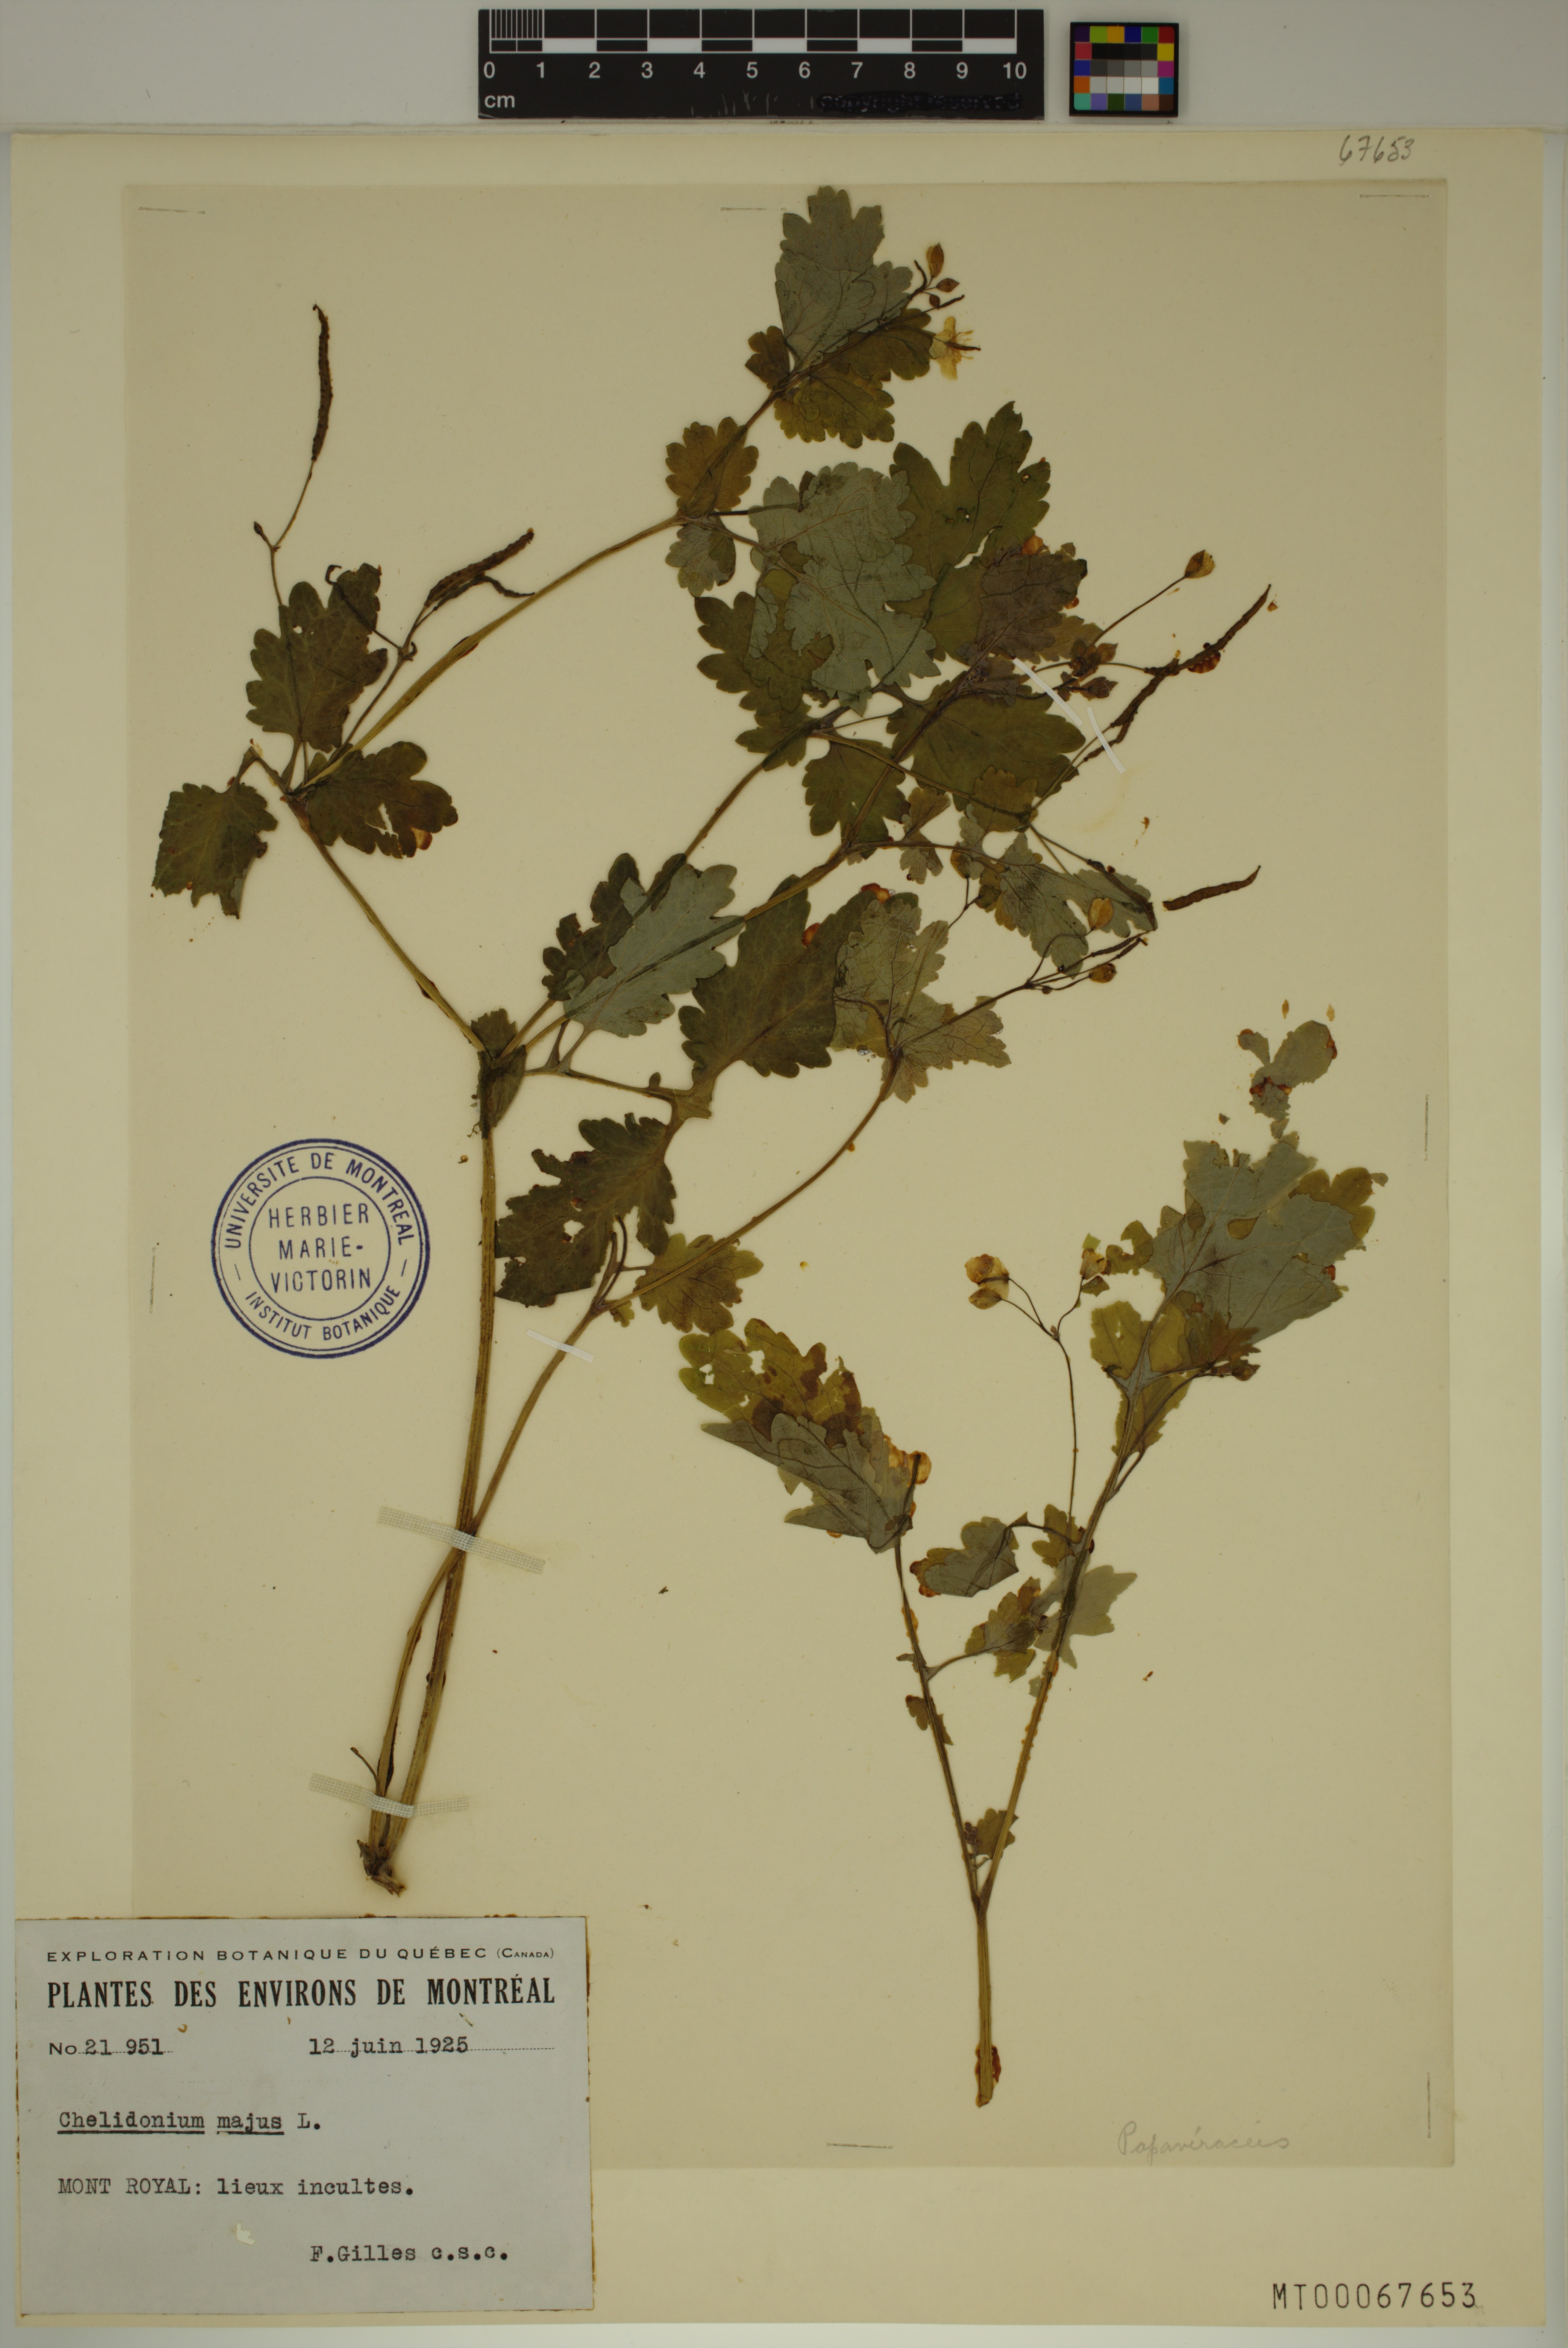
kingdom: Plantae
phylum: Tracheophyta
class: Magnoliopsida
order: Ranunculales
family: Papaveraceae
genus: Chelidonium
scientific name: Chelidonium majus
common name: Greater celandine
